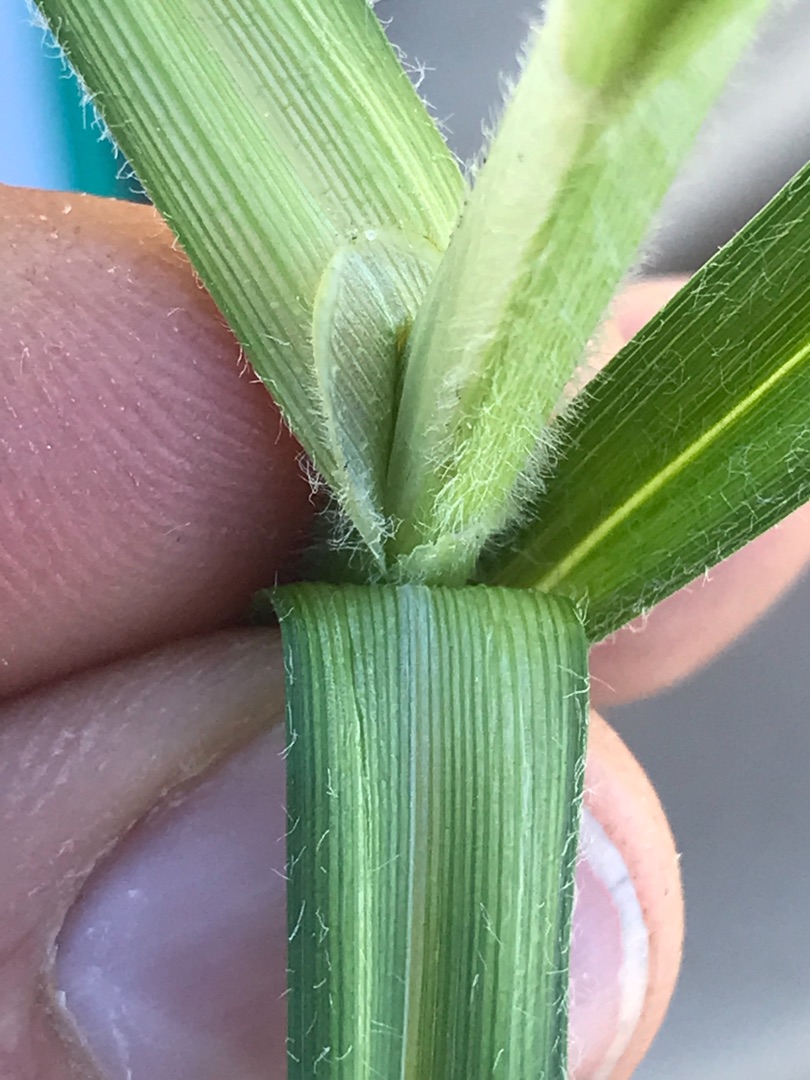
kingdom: Plantae
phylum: Tracheophyta
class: Liliopsida
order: Poales
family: Cyperaceae
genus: Carex
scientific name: Carex hirta
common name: Håret star
